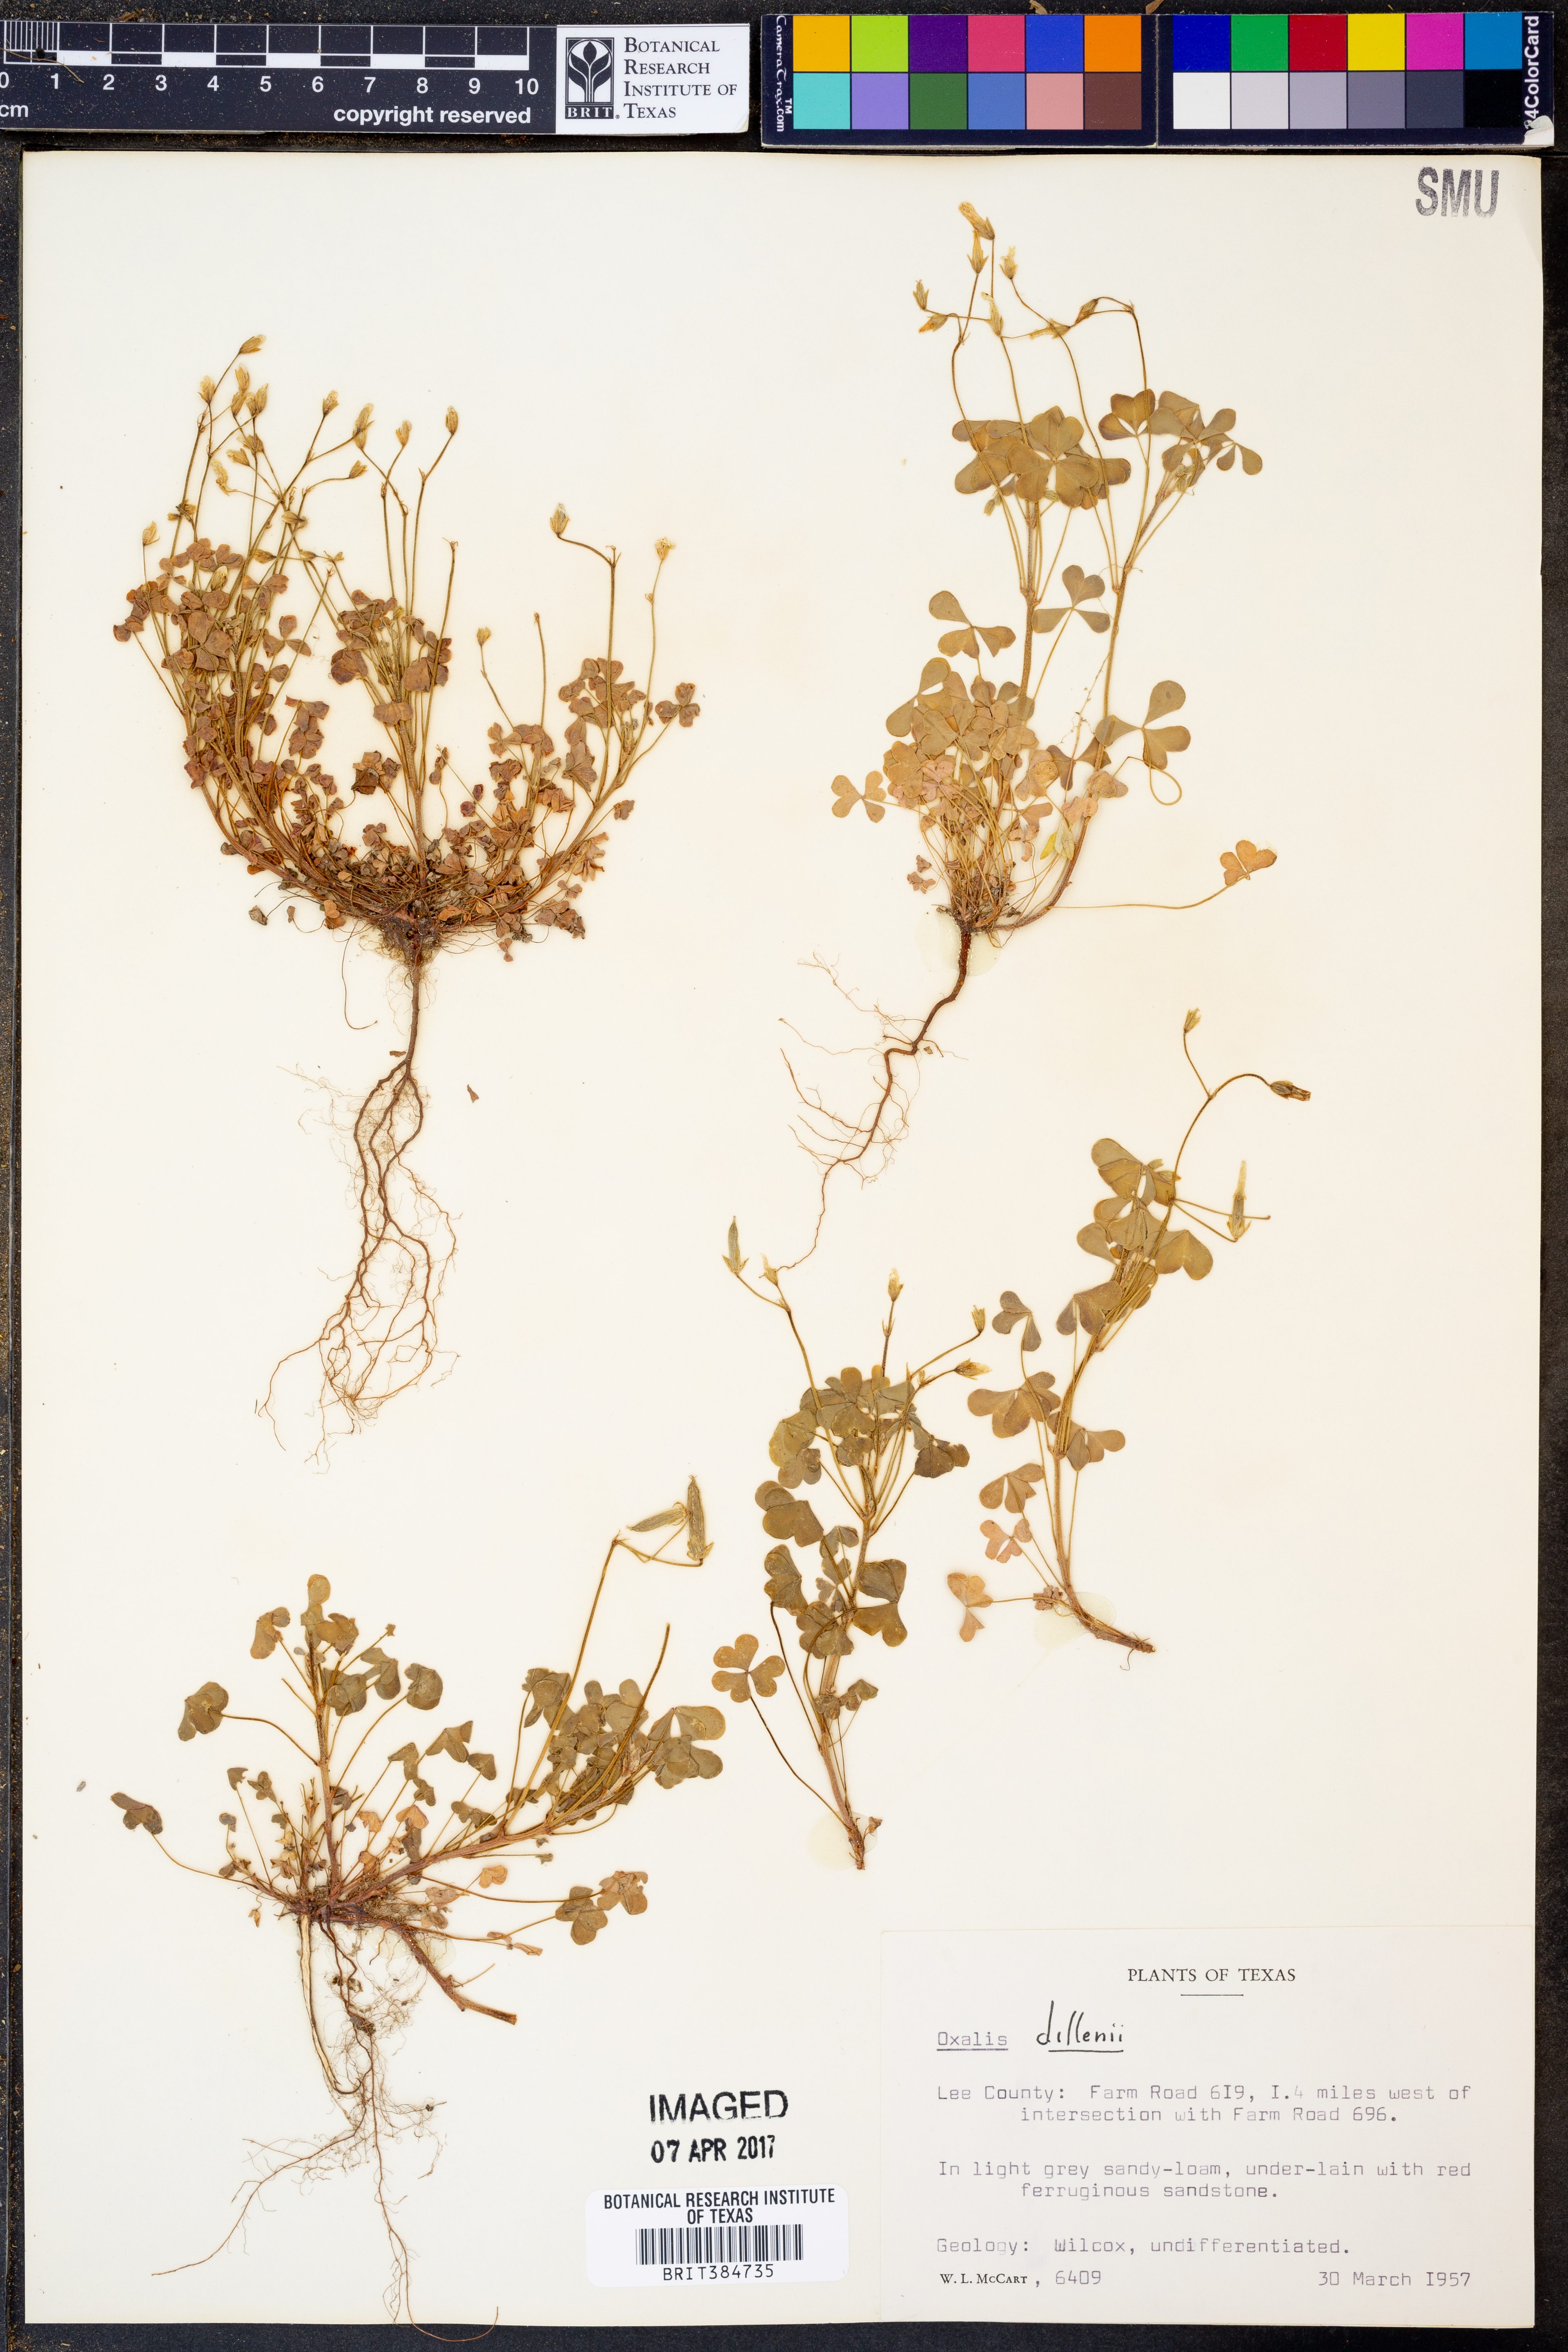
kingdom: Plantae
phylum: Tracheophyta
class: Magnoliopsida
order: Oxalidales
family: Oxalidaceae
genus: Oxalis
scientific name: Oxalis dillenii
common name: Sussex yellow-sorrel
